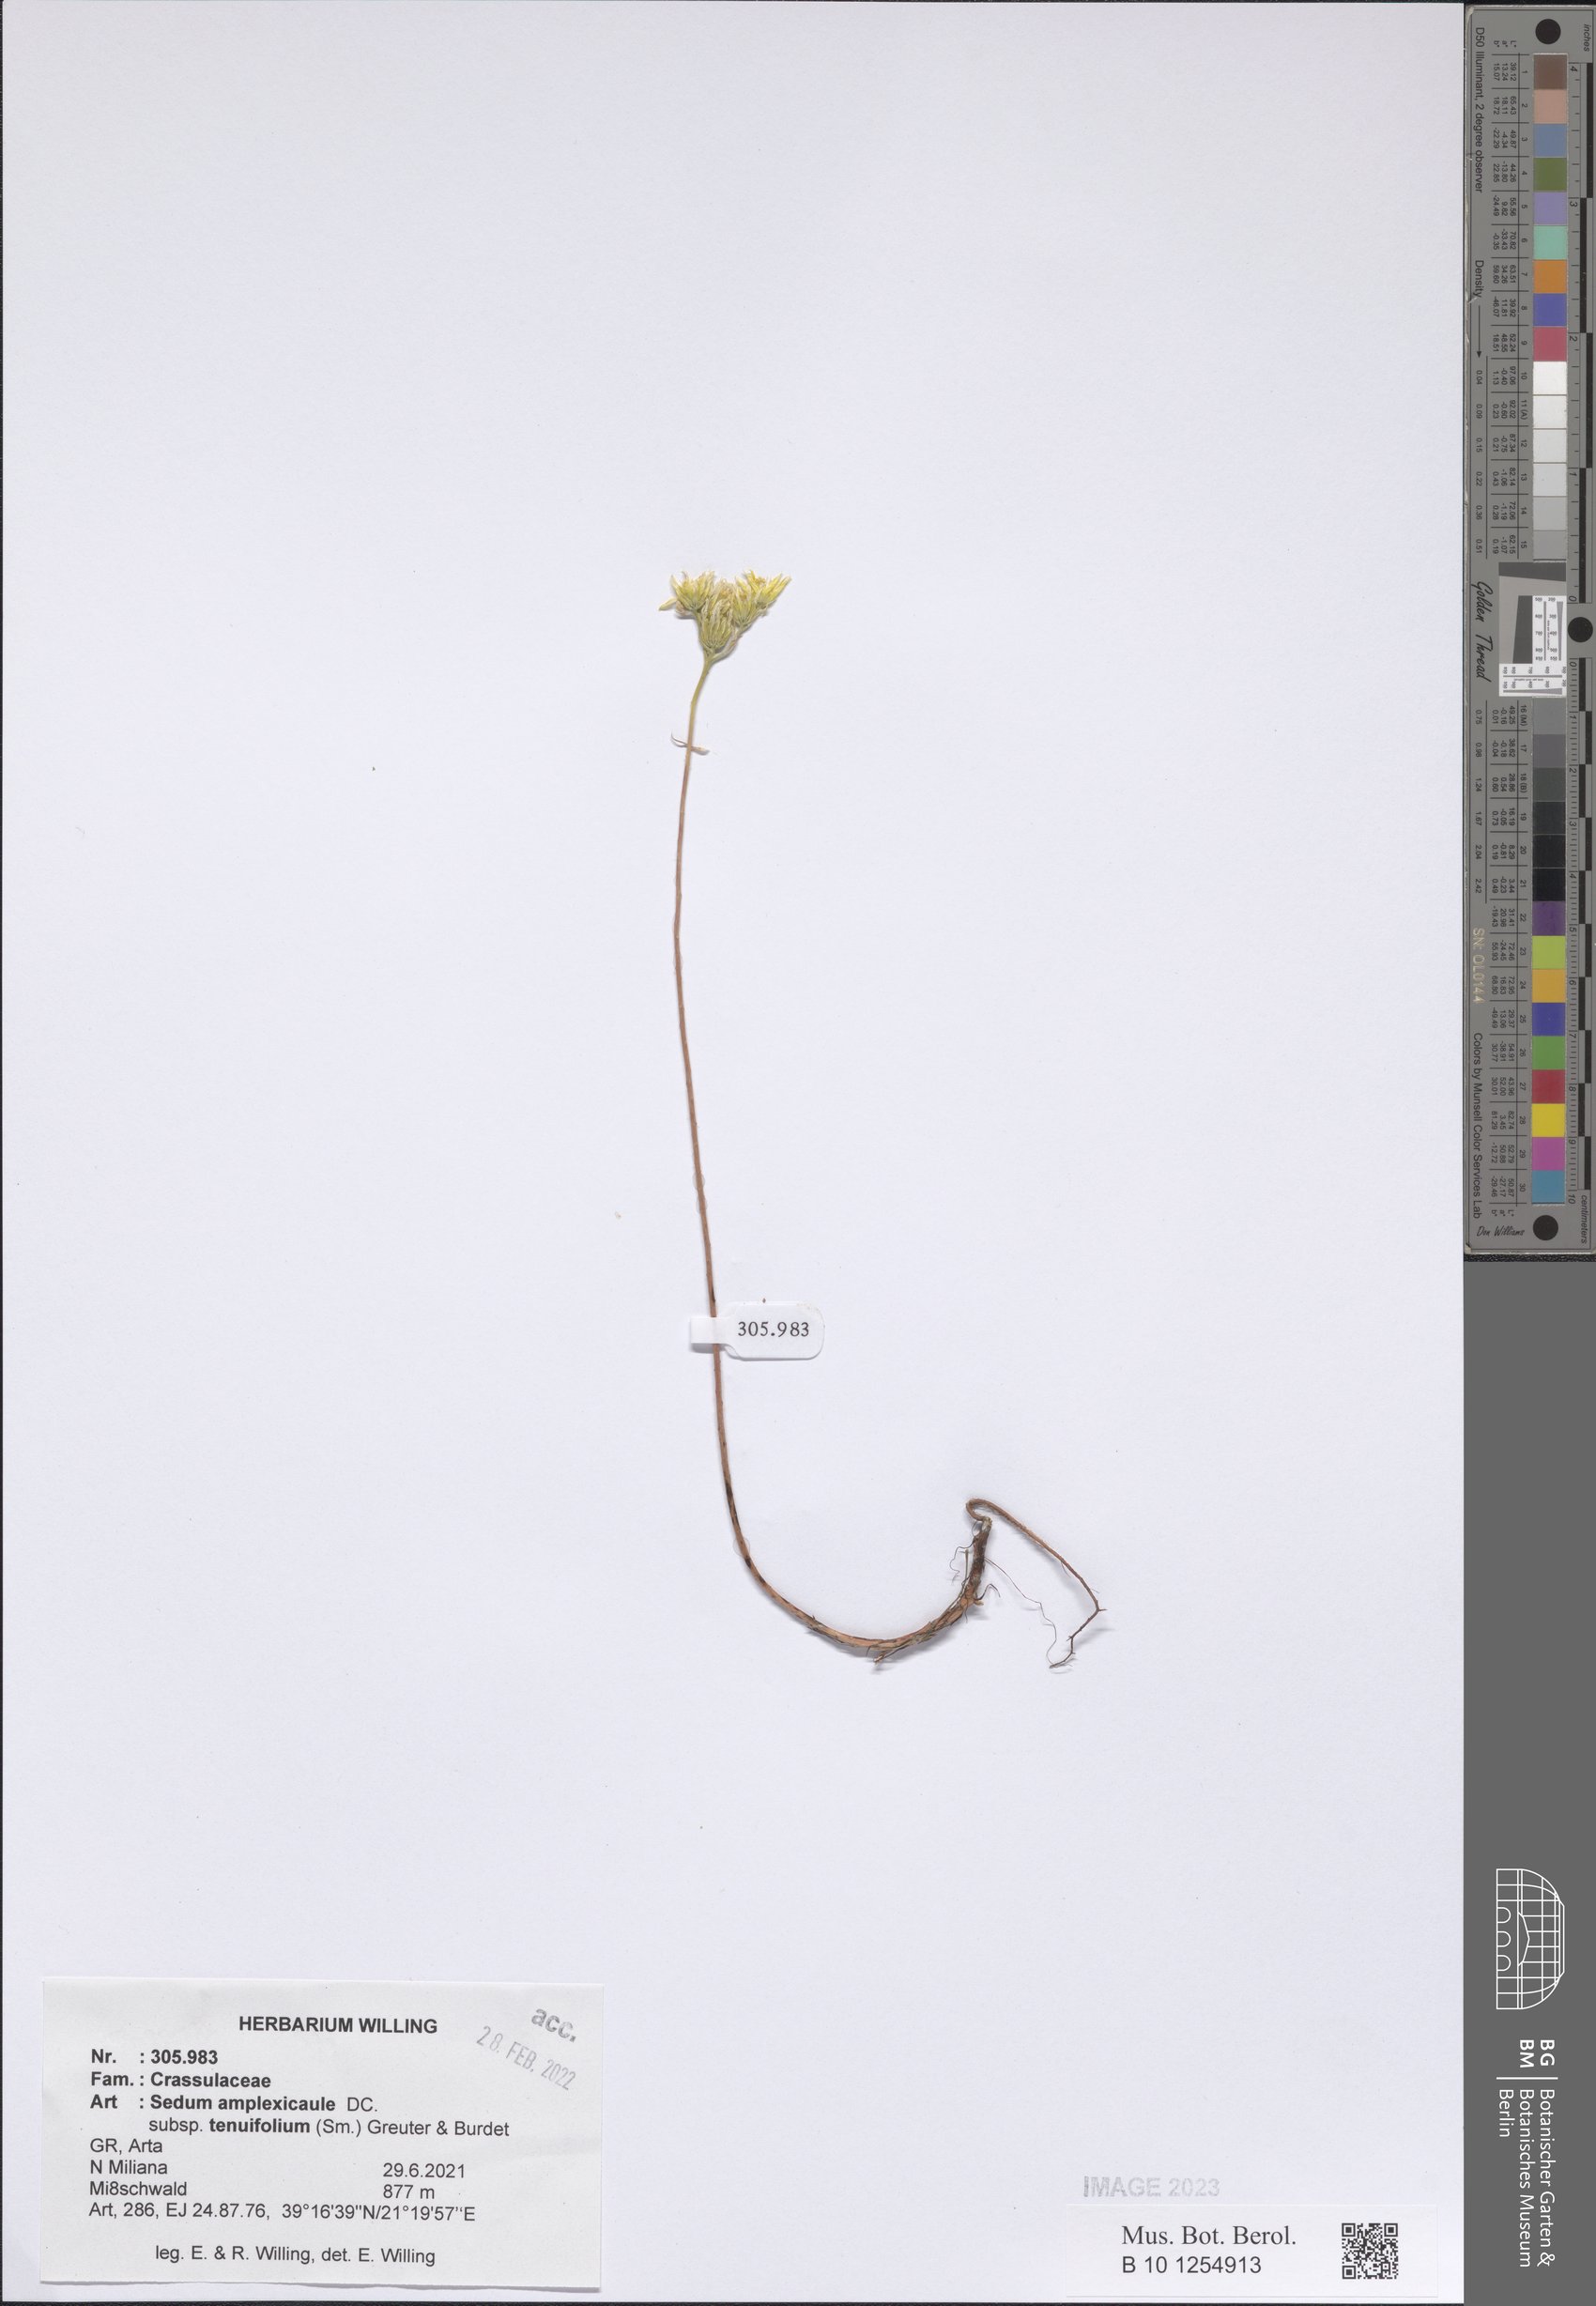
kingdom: Plantae
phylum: Tracheophyta
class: Magnoliopsida
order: Saxifragales
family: Crassulaceae
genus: Petrosedum
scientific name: Petrosedum tenuifolium
